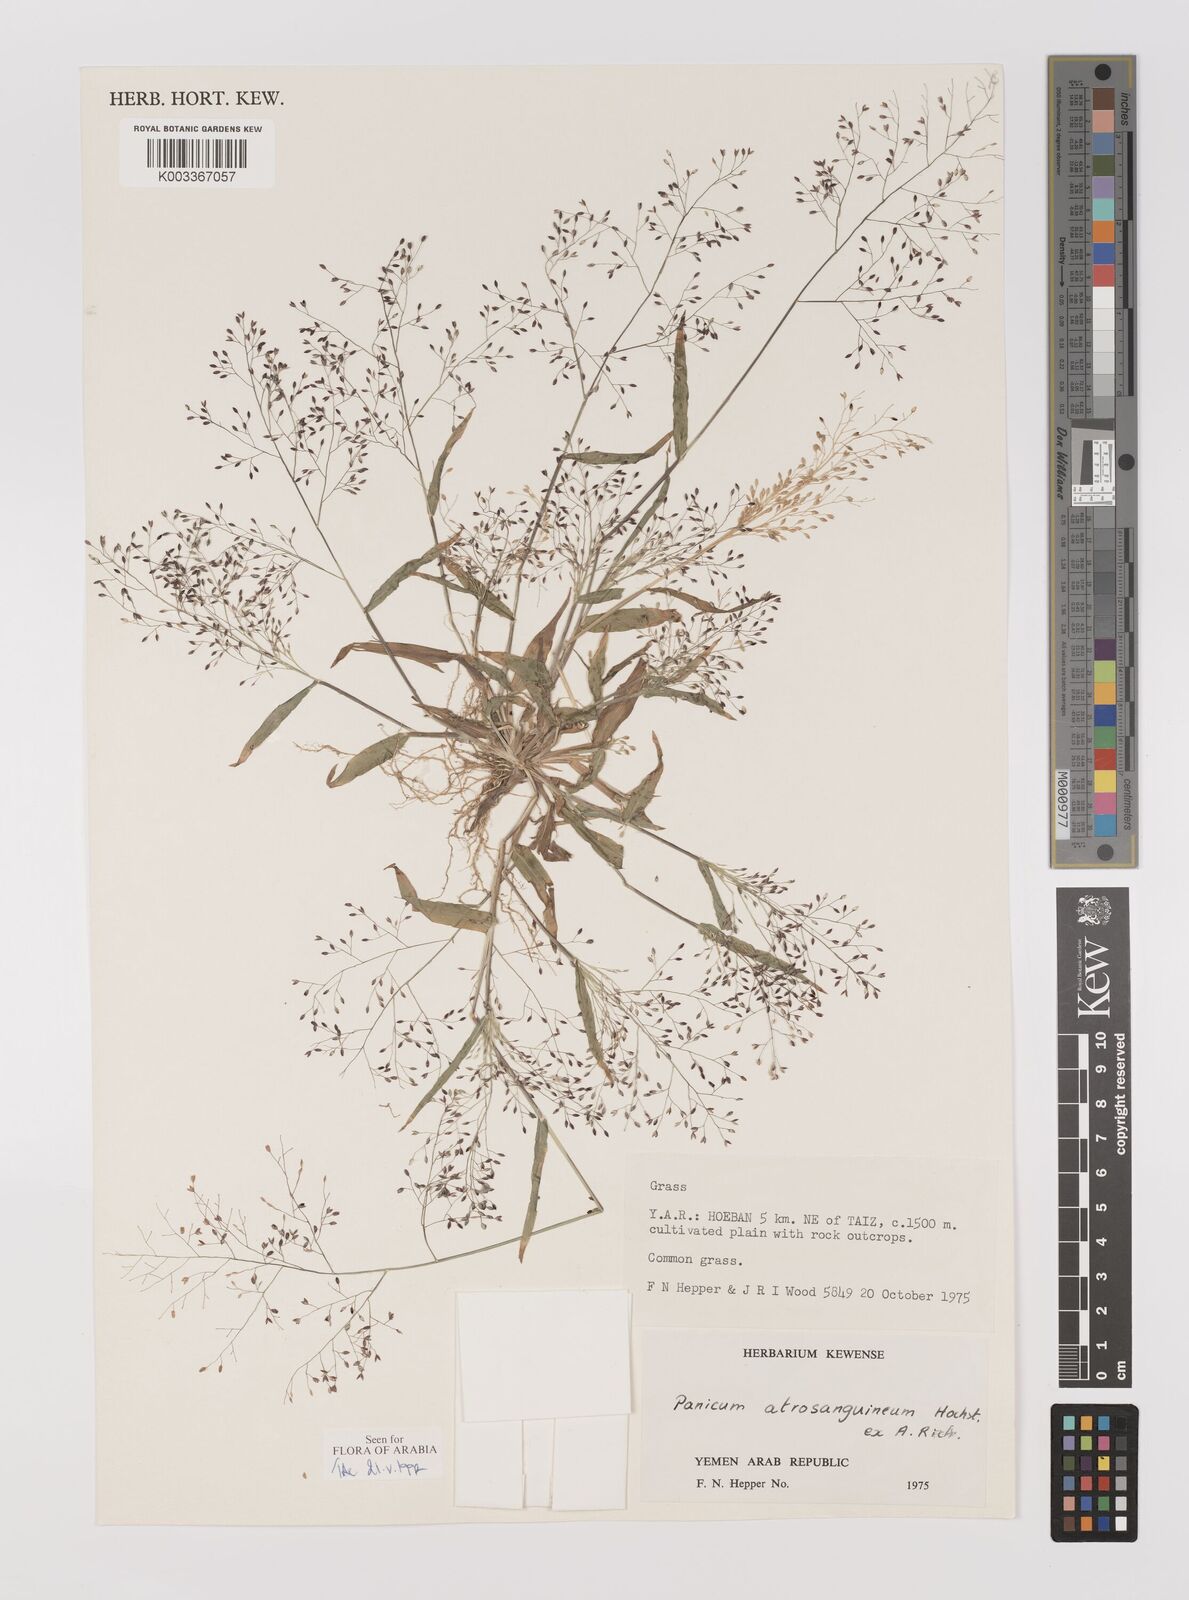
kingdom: Plantae
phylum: Tracheophyta
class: Liliopsida
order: Poales
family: Poaceae
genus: Panicum
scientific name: Panicum atrosanguineum
